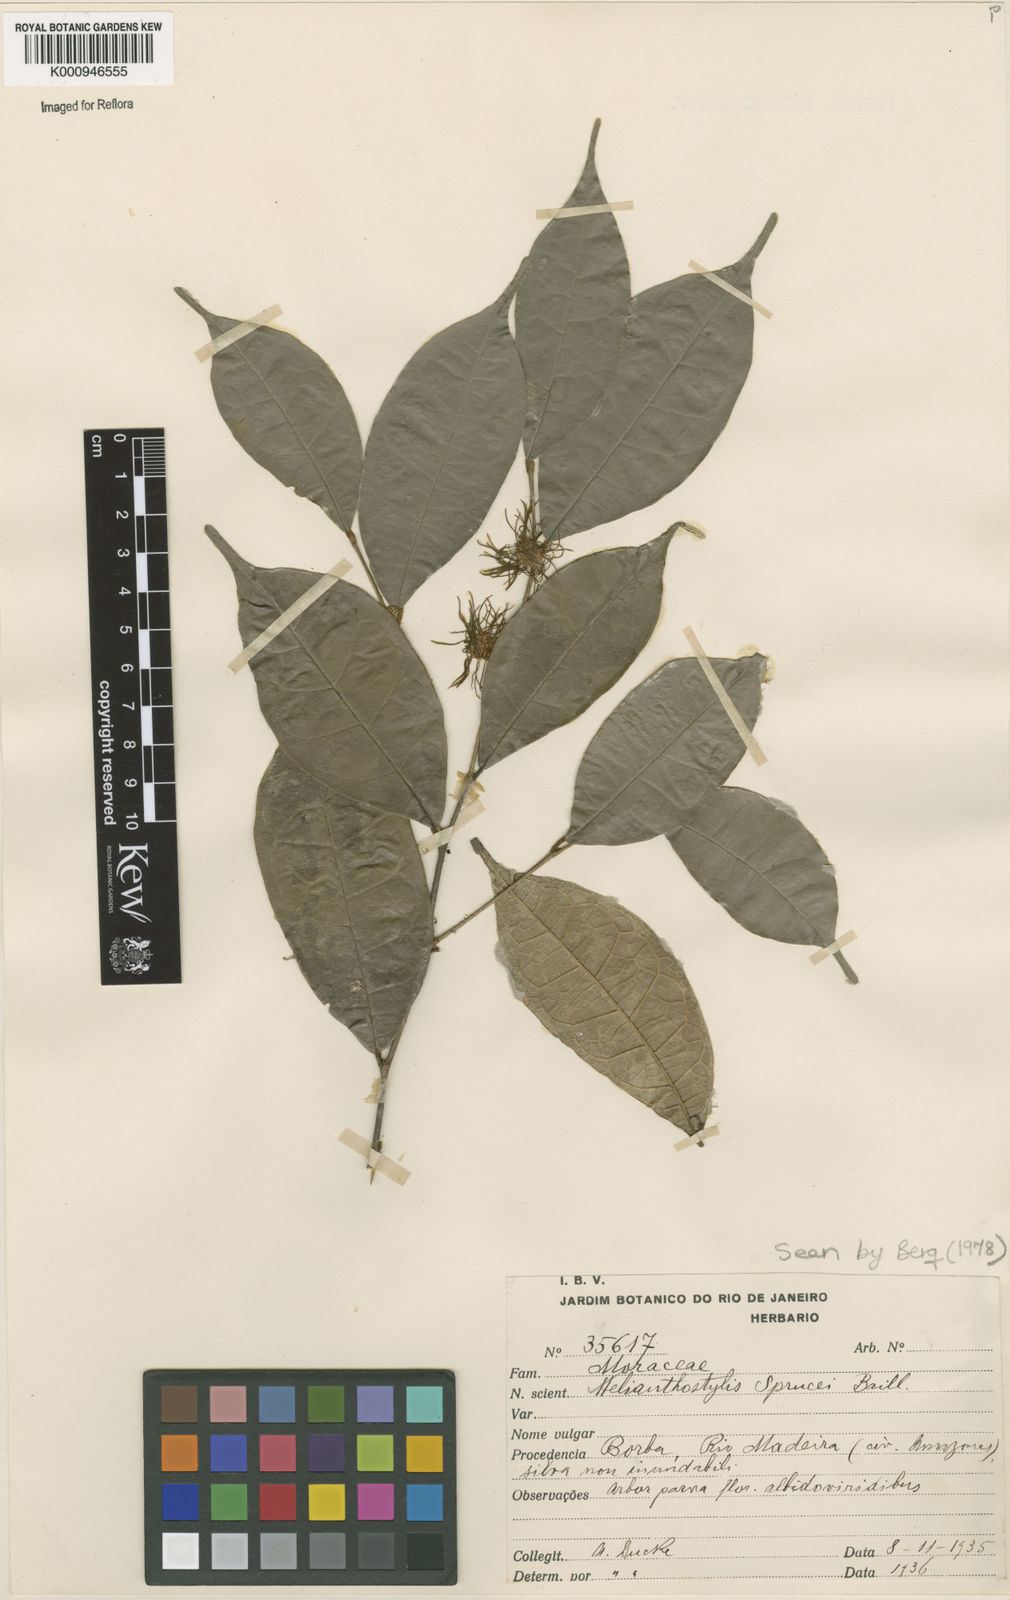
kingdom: Plantae
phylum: Tracheophyta
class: Magnoliopsida
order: Rosales
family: Moraceae
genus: Brosimum
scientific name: Brosimum sprucei
